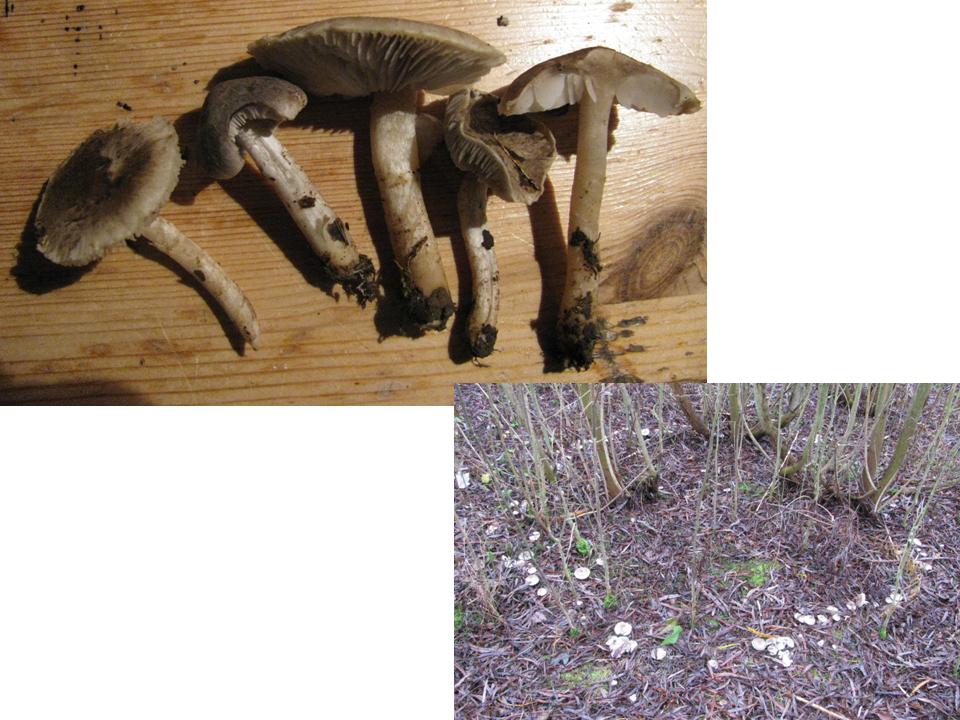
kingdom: Fungi
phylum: Basidiomycota
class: Agaricomycetes
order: Agaricales
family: Tricholomataceae
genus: Tricholoma
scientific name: Tricholoma argyraceum
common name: slør-ridderhat
